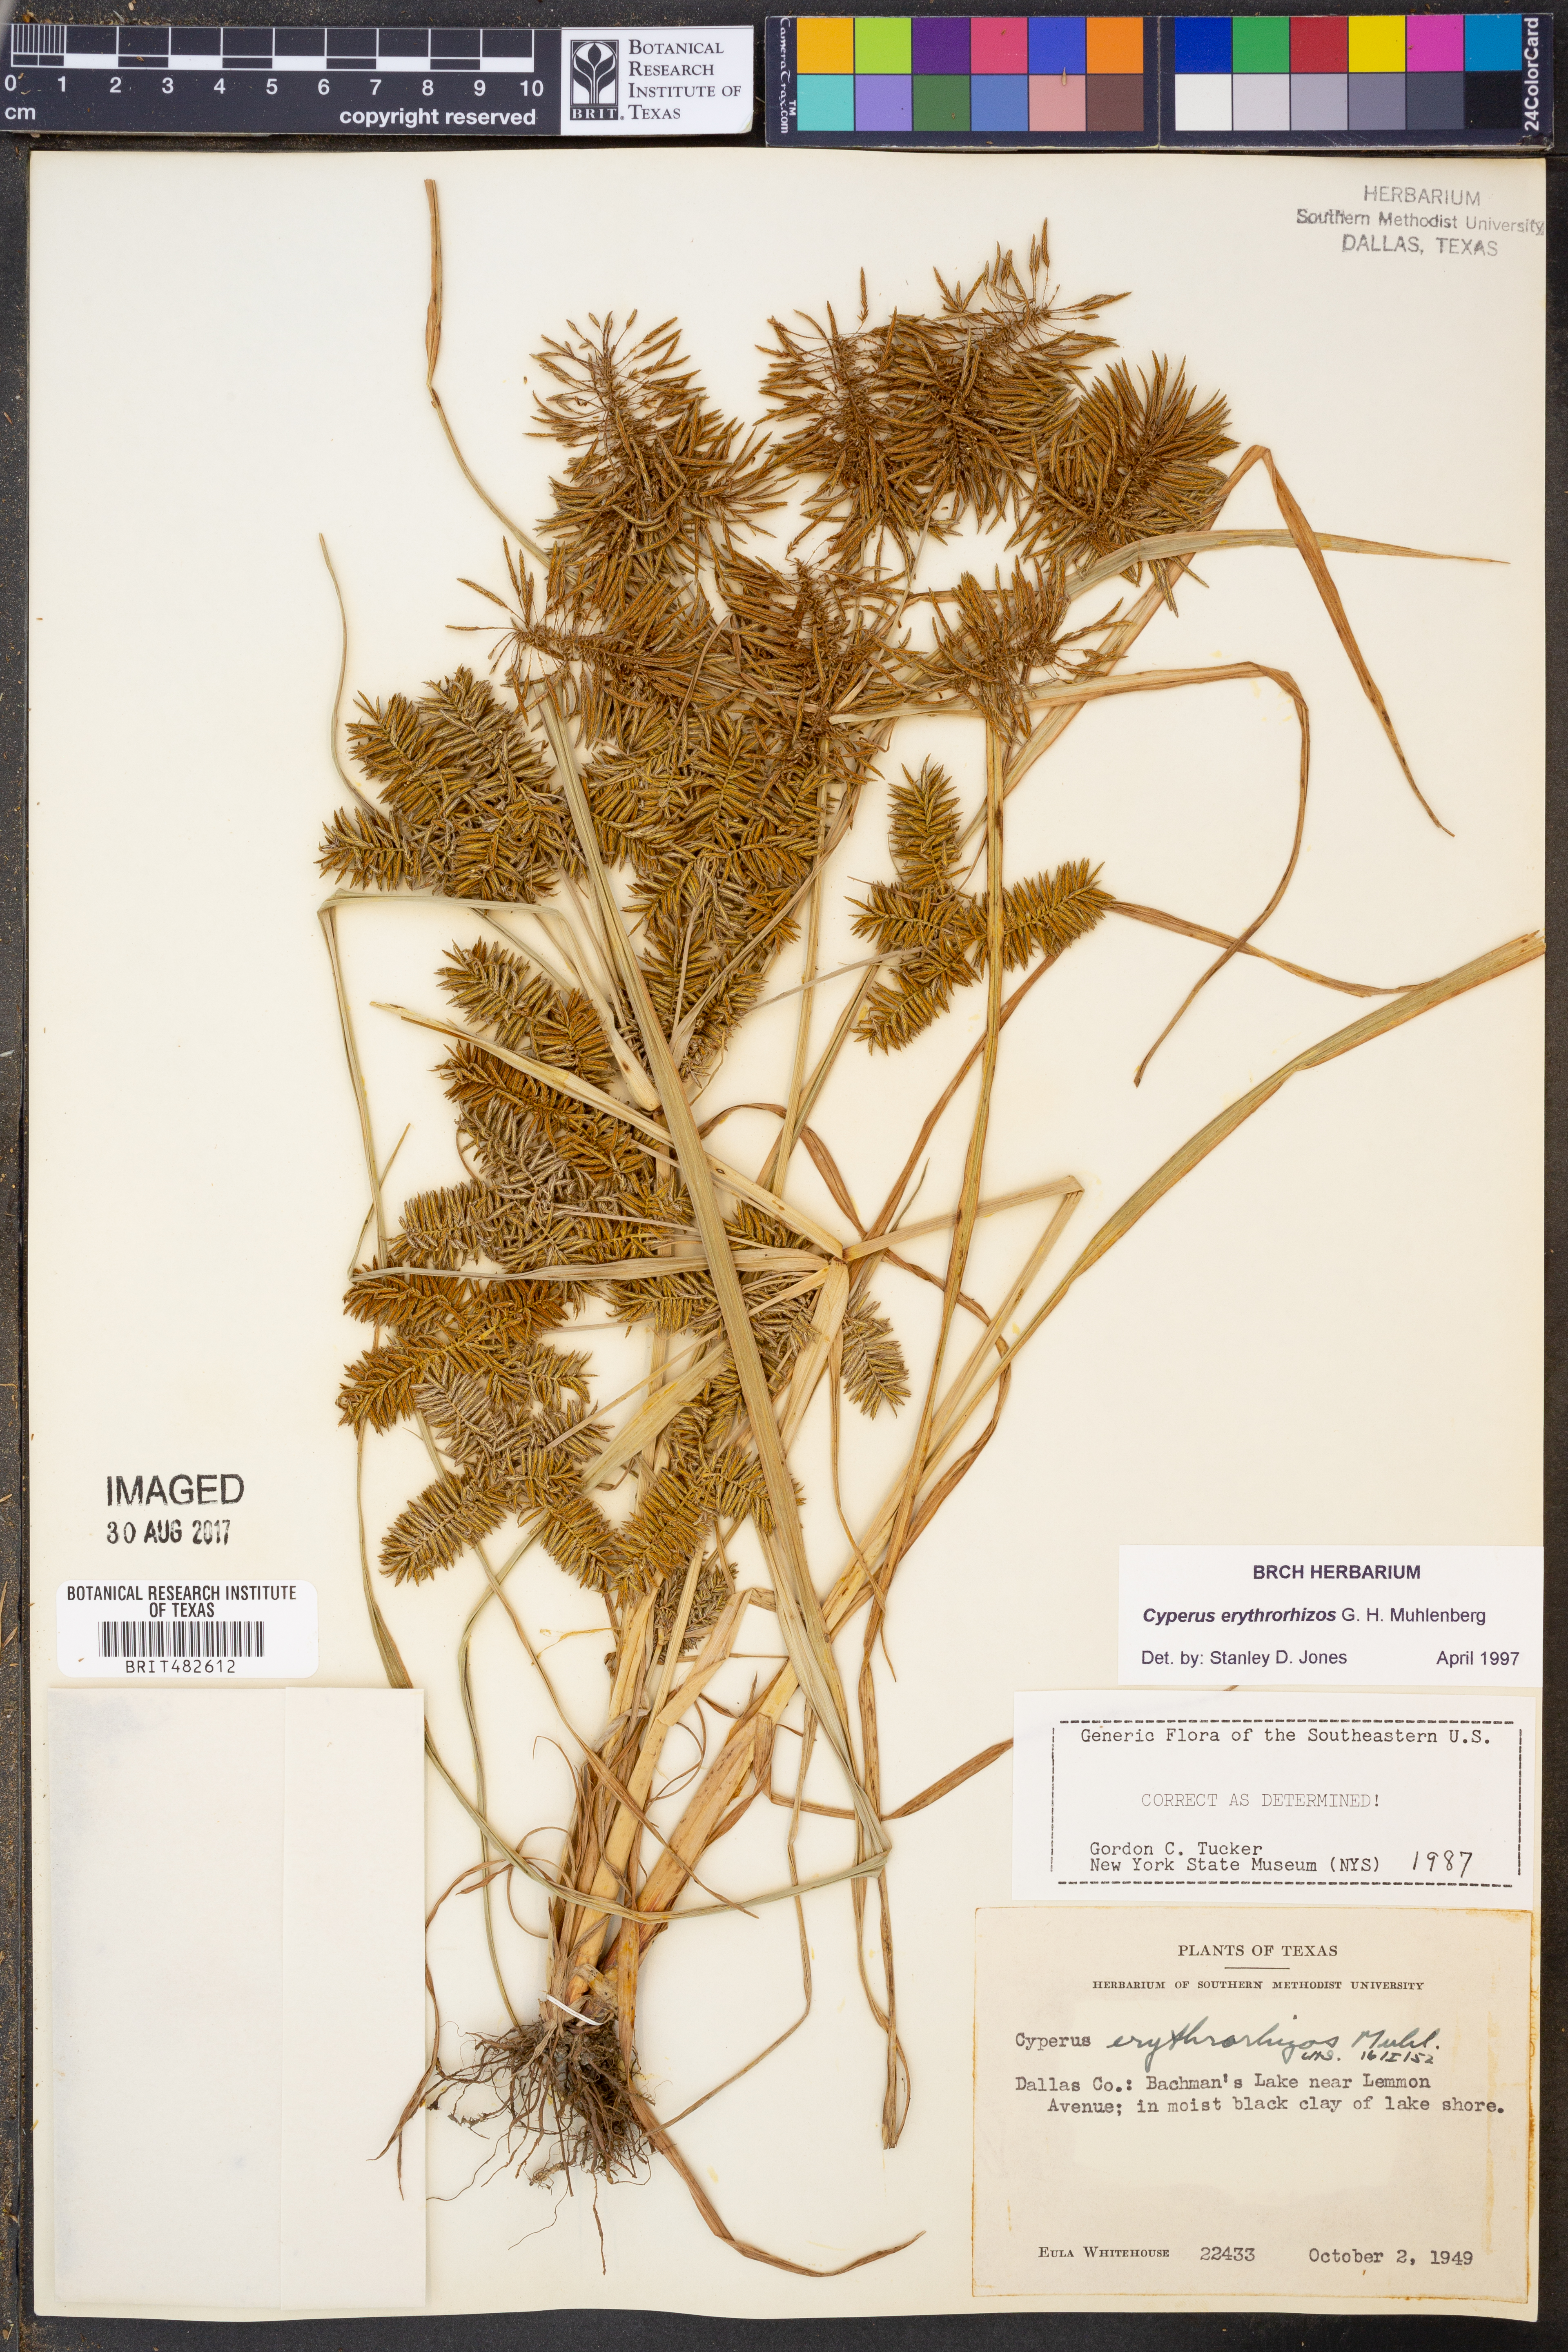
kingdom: Plantae
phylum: Tracheophyta
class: Liliopsida
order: Poales
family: Cyperaceae
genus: Cyperus
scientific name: Cyperus erythrorhizos
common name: Red-root flat sedge
